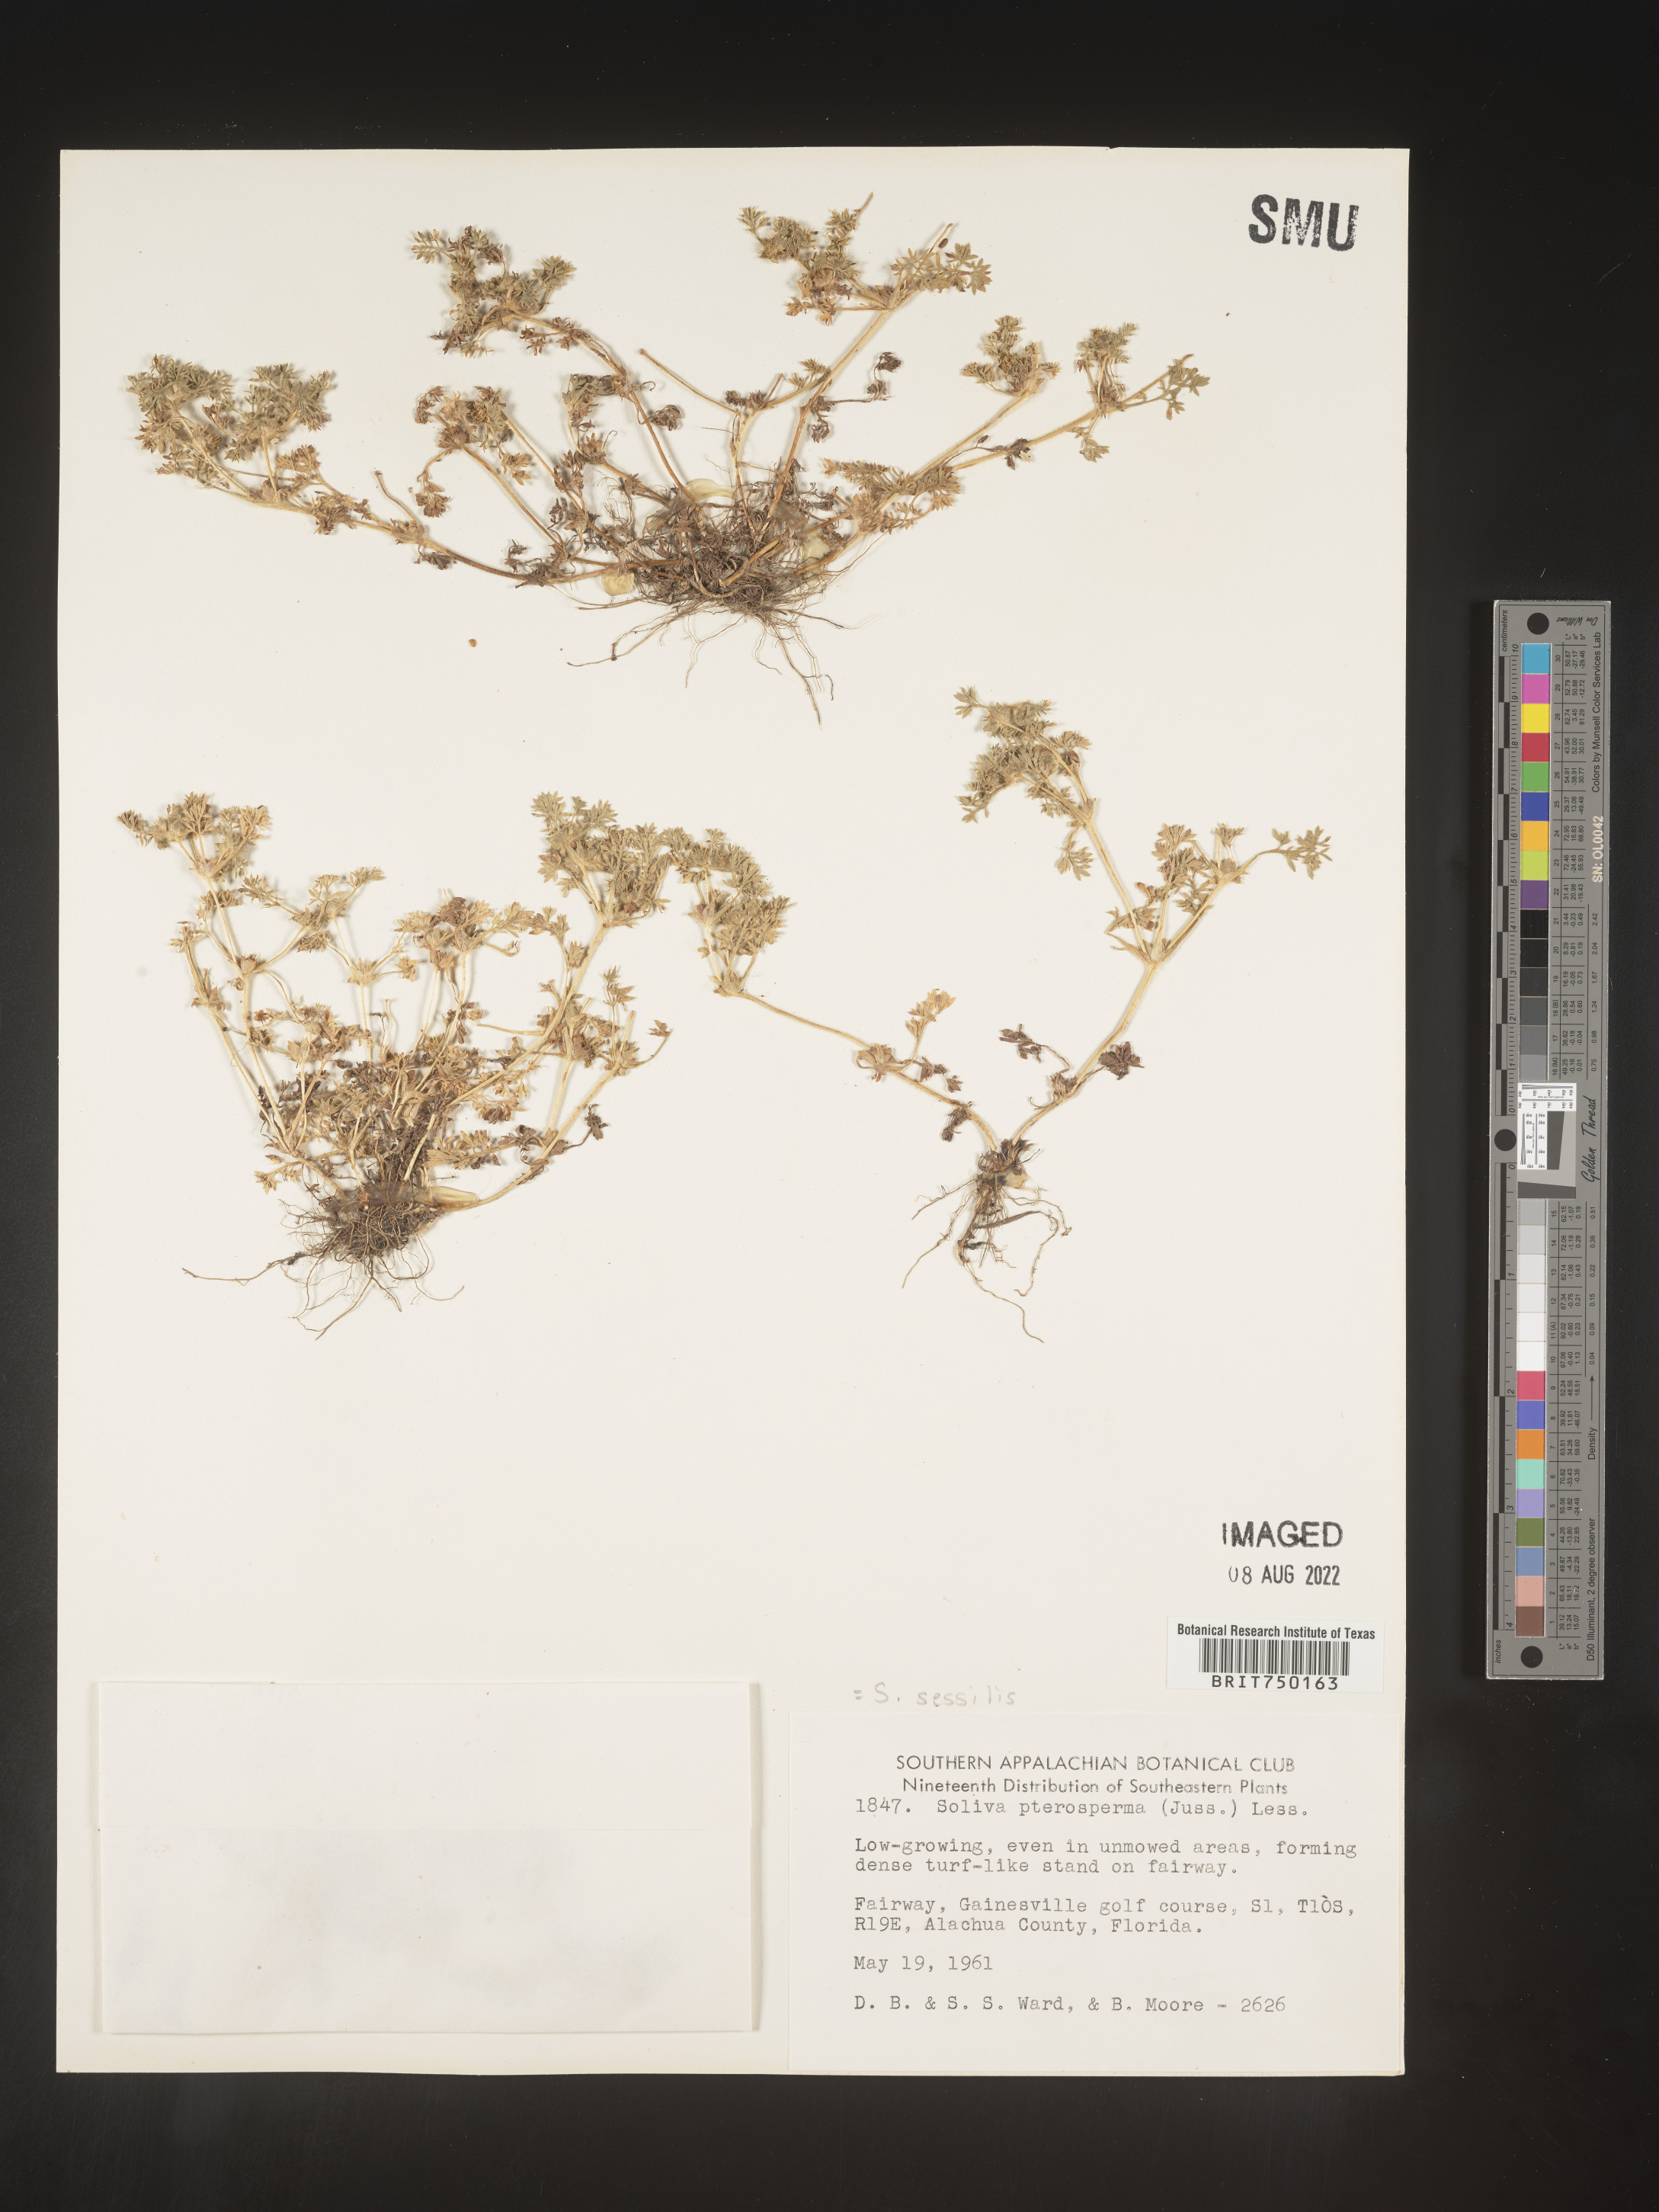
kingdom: Plantae
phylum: Tracheophyta
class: Magnoliopsida
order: Asterales
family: Asteraceae
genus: Soliva
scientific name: Soliva sessilis
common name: Field burrweed
